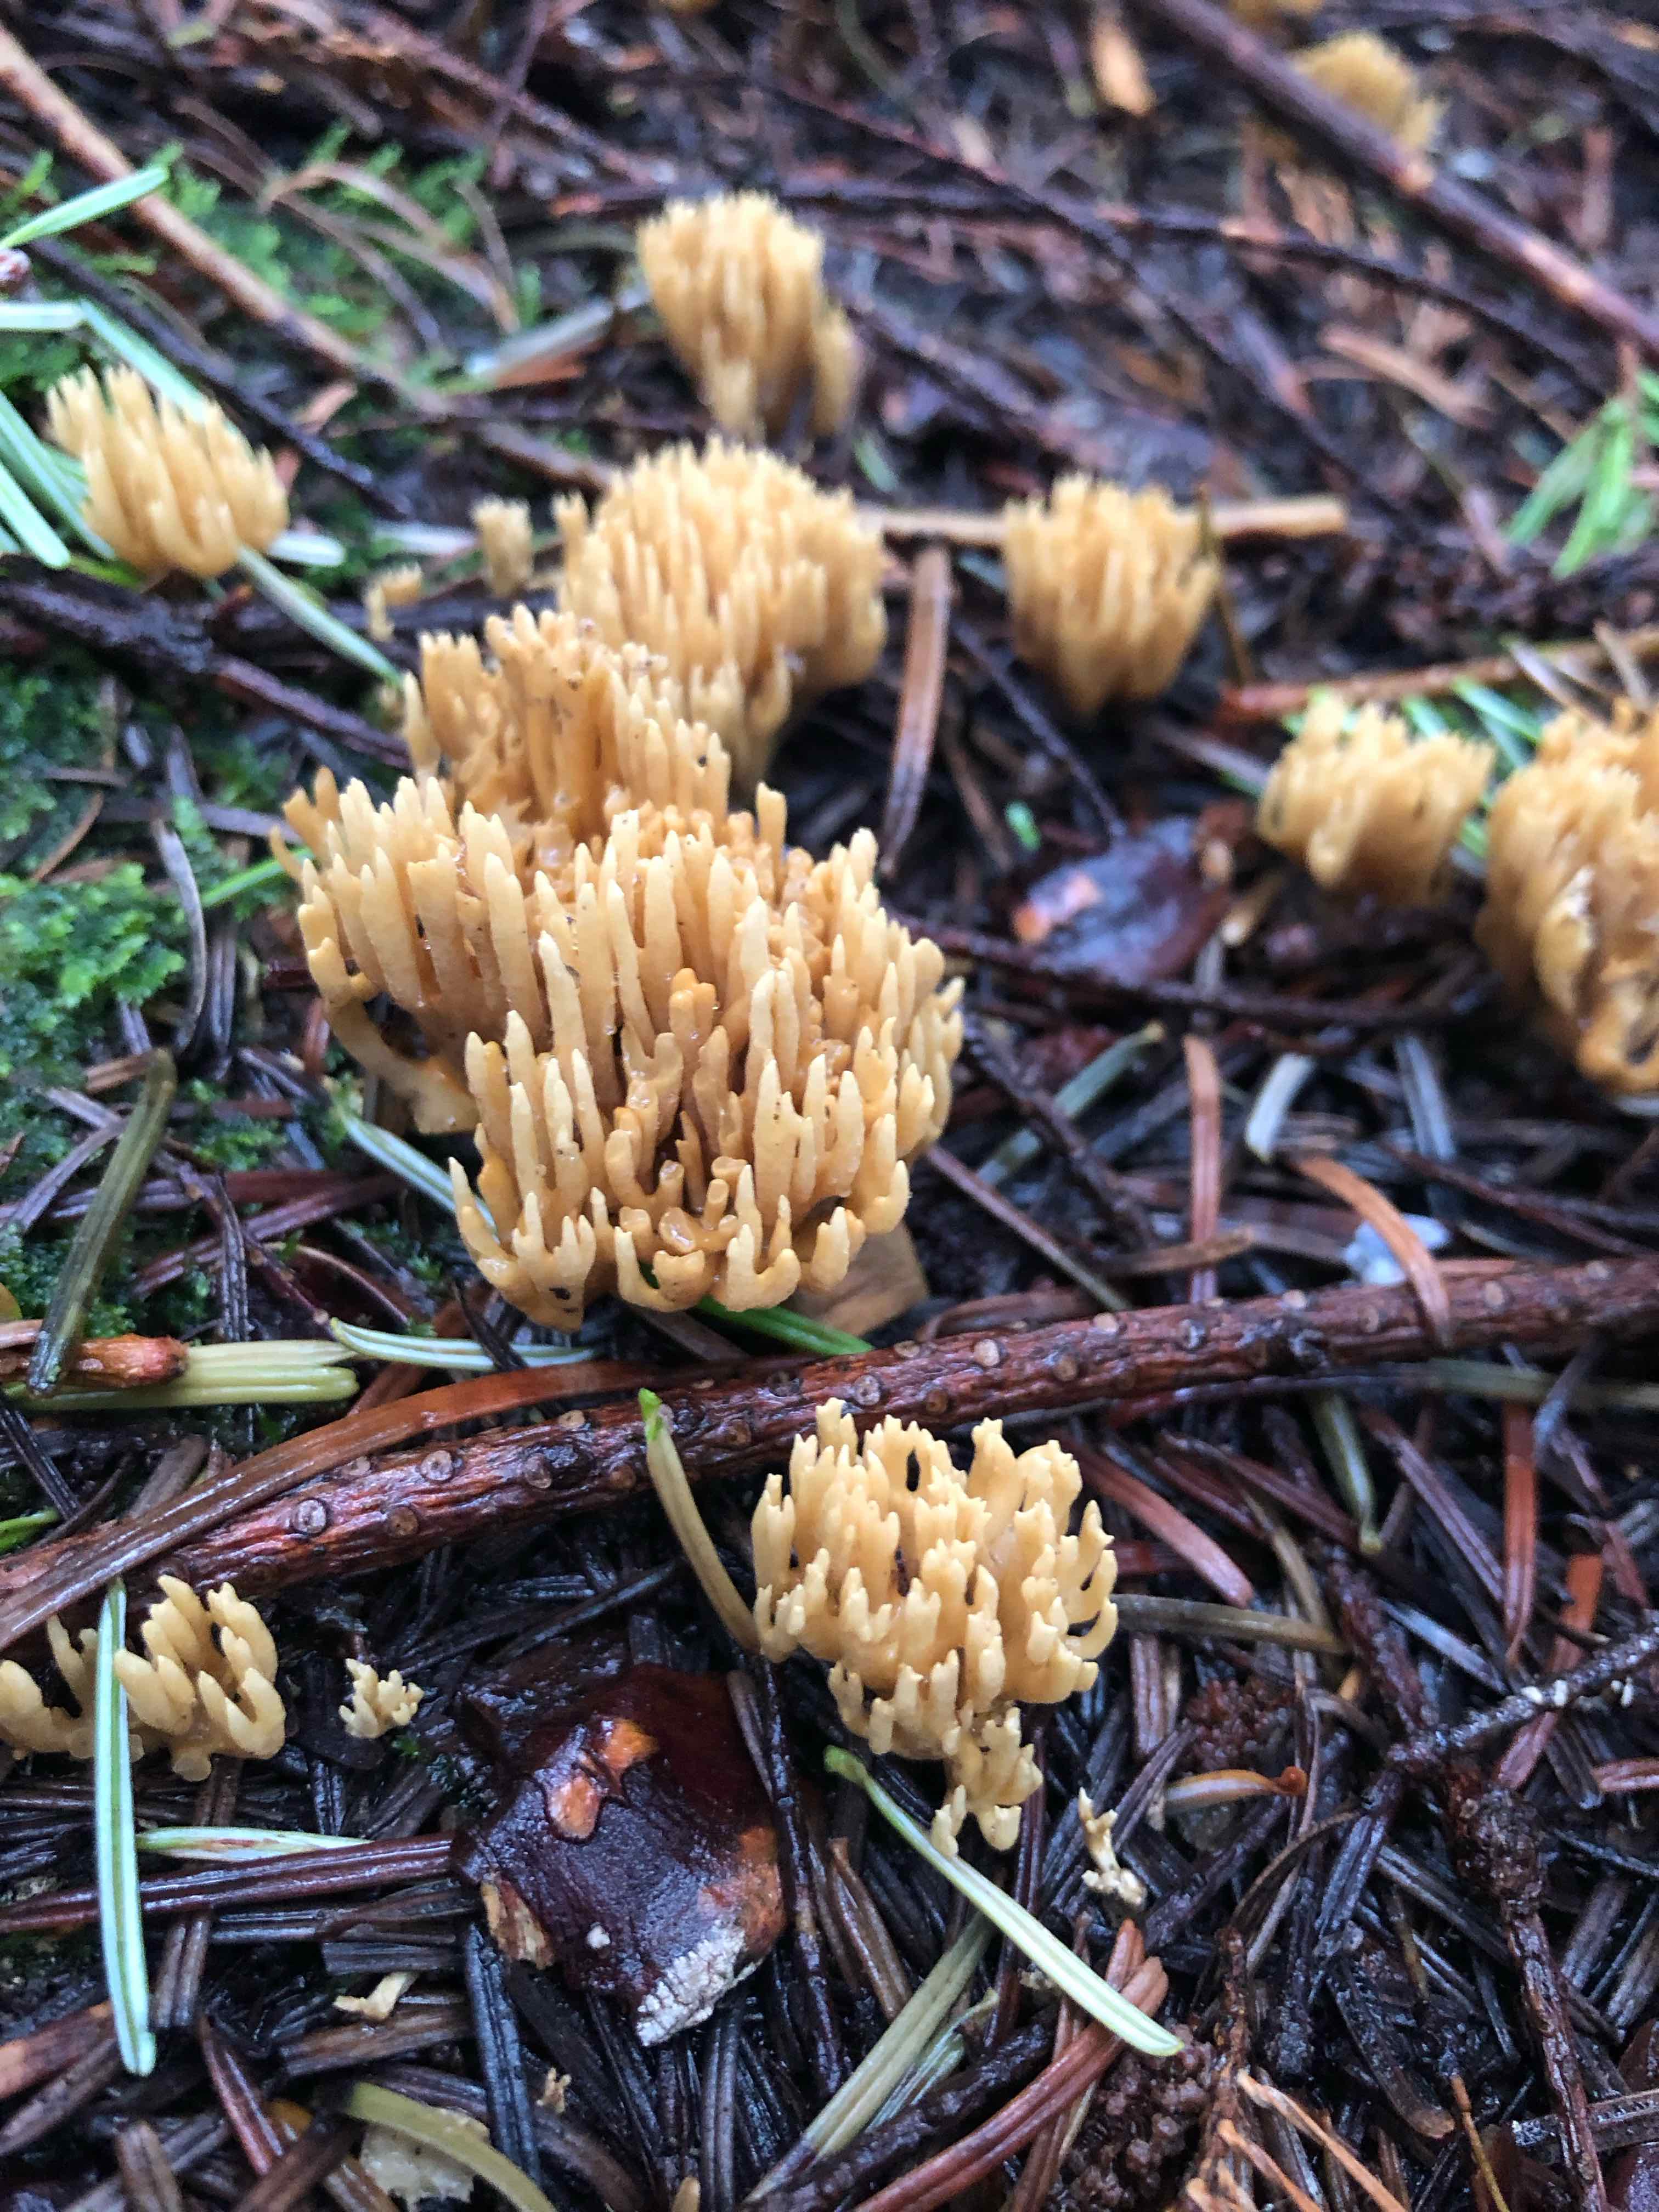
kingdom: Fungi
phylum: Basidiomycota
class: Agaricomycetes
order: Gomphales
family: Gomphaceae
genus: Phaeoclavulina
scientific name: Phaeoclavulina eumorpha
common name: gran-koralsvamp
